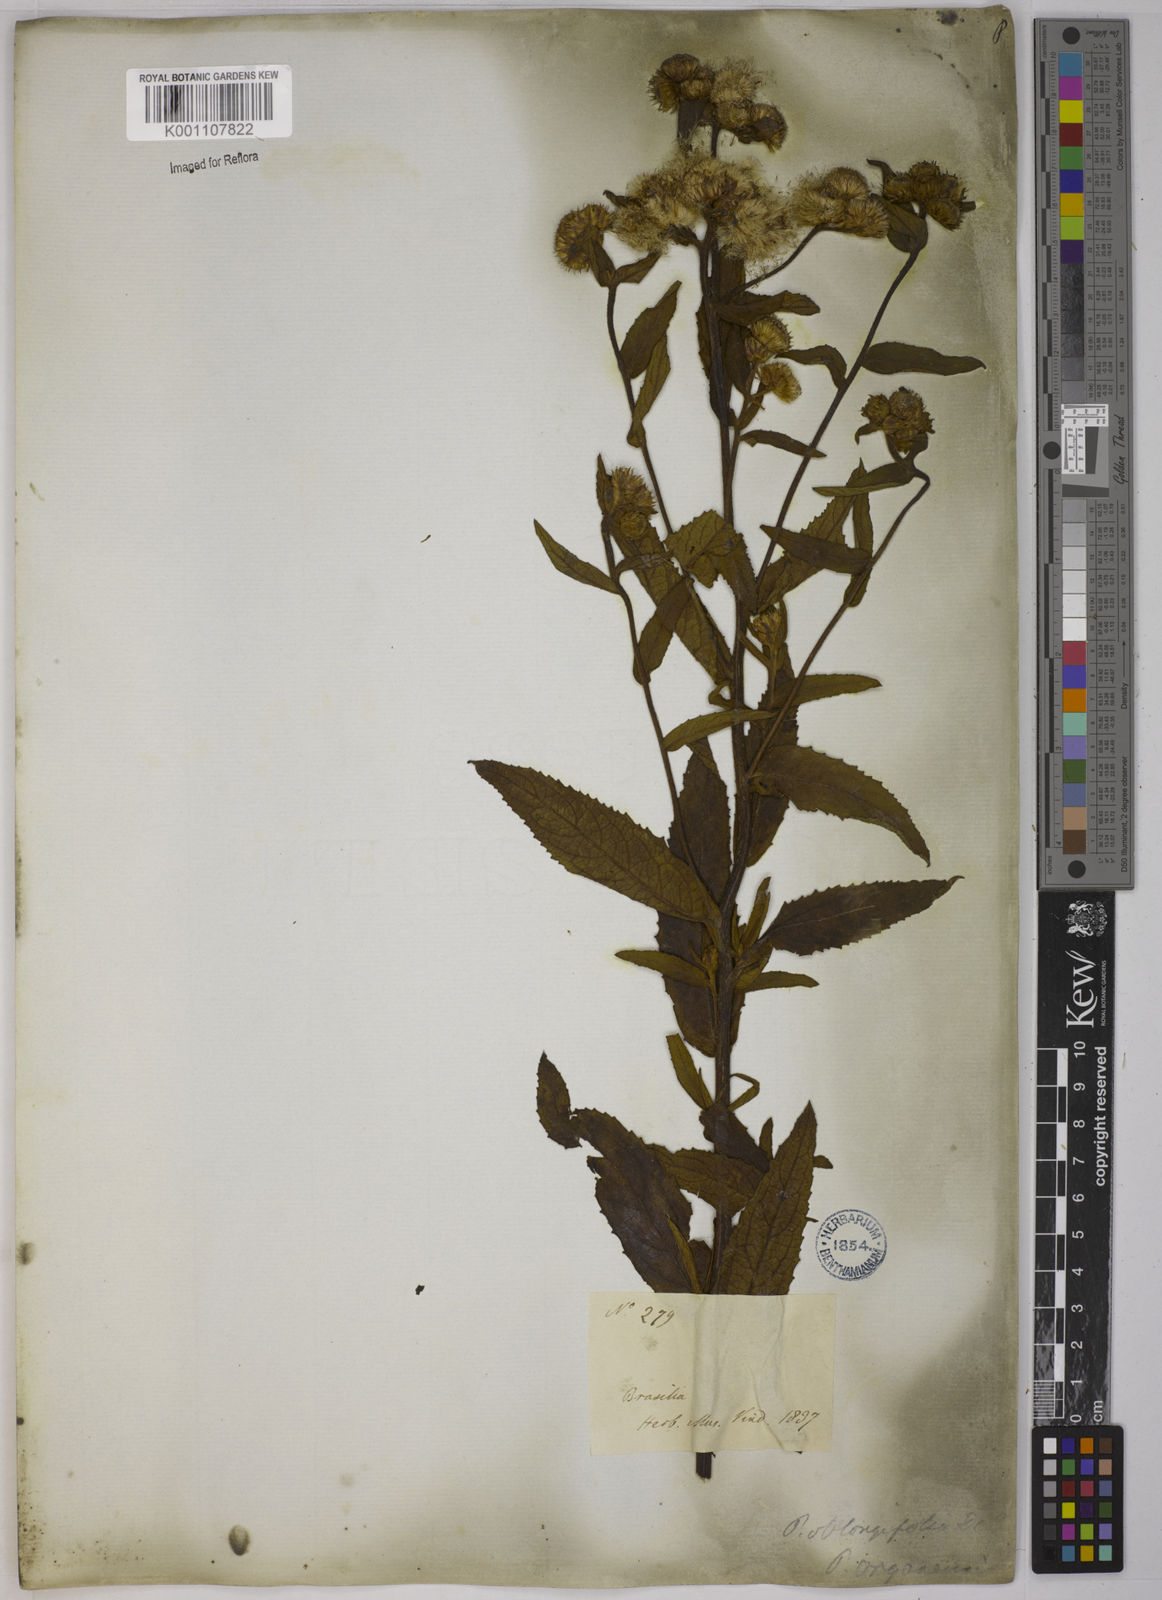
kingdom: Plantae
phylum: Tracheophyta
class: Magnoliopsida
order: Asterales
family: Asteraceae
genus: Pluchea
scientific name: Pluchea oblongifolia
